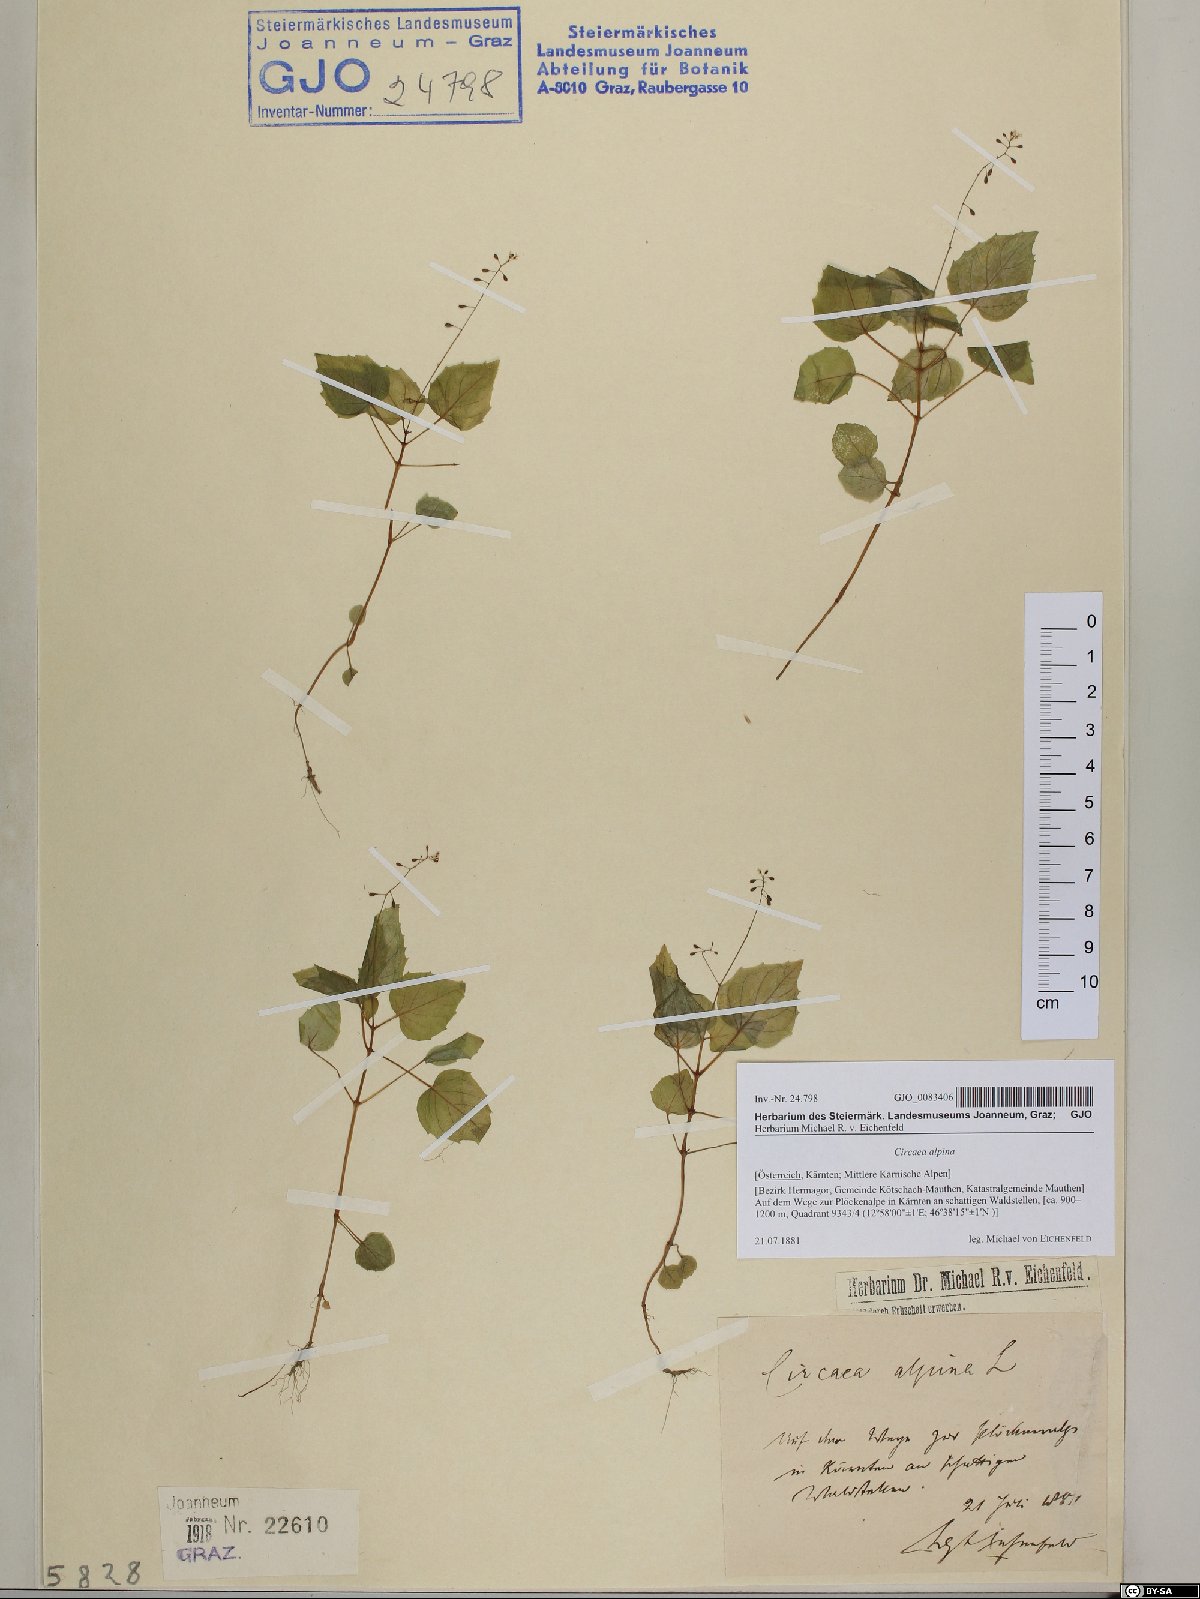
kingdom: Plantae
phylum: Tracheophyta
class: Magnoliopsida
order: Myrtales
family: Onagraceae
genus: Circaea
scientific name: Circaea alpina
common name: Alpine enchanter's-nightshade
